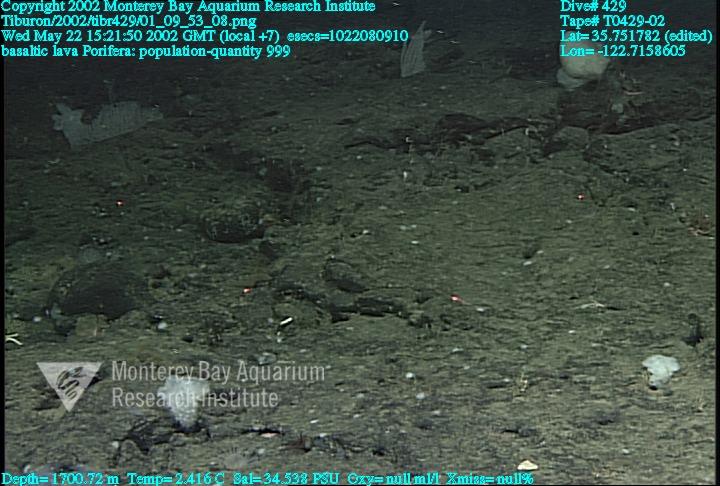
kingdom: Animalia
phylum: Porifera
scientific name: Porifera
